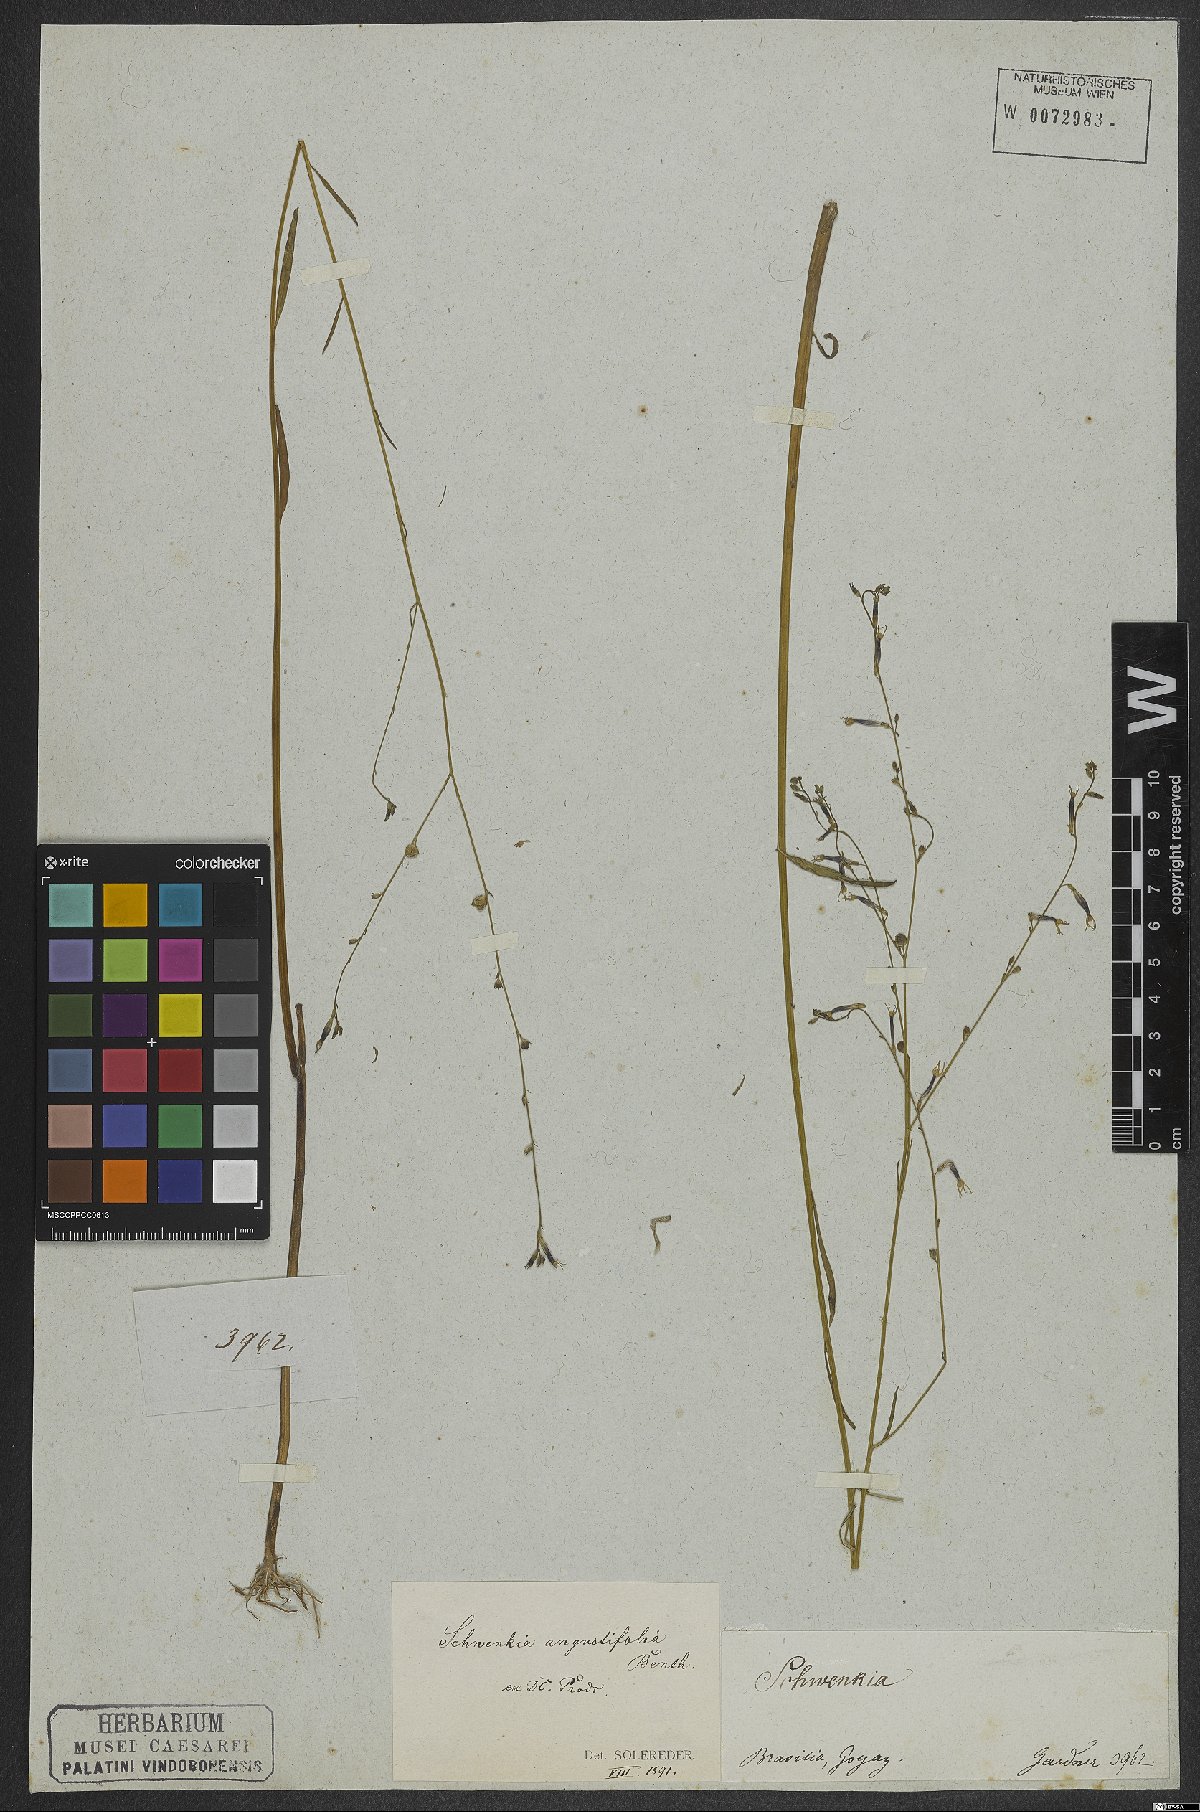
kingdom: Plantae
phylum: Tracheophyta
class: Magnoliopsida
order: Solanales
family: Solanaceae
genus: Schwenckia
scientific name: Schwenckia americana
